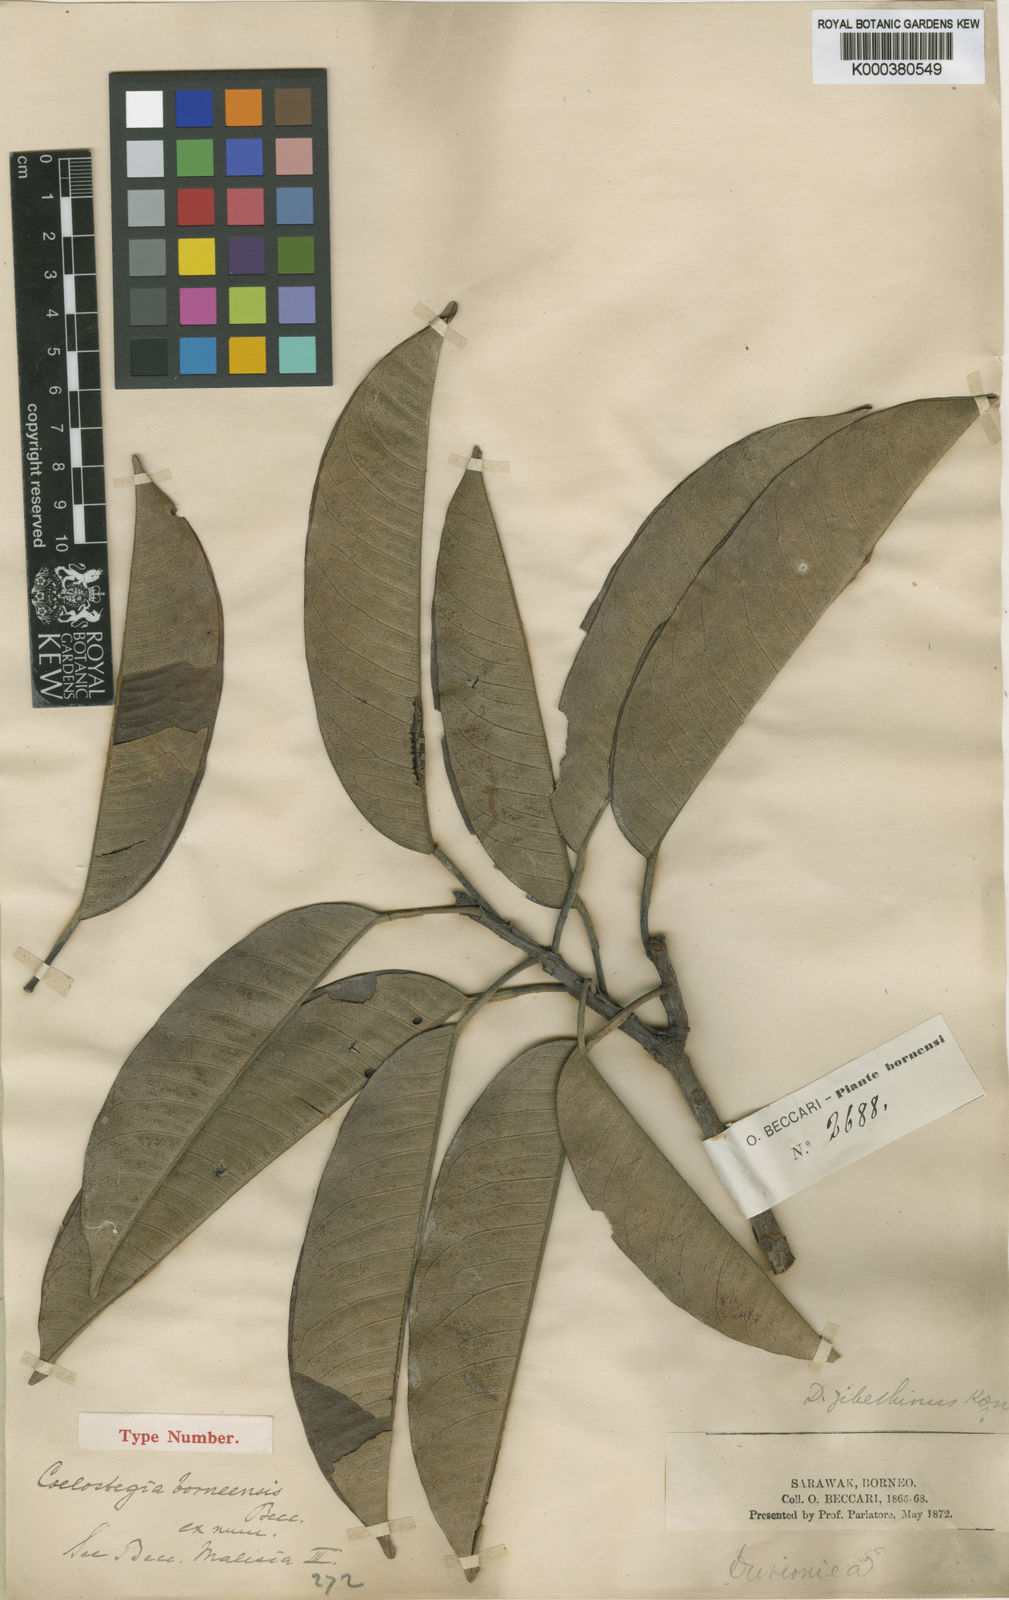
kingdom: Plantae
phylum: Tracheophyta
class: Magnoliopsida
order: Malvales
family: Malvaceae
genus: Coelostegia
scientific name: Coelostegia borneensis
